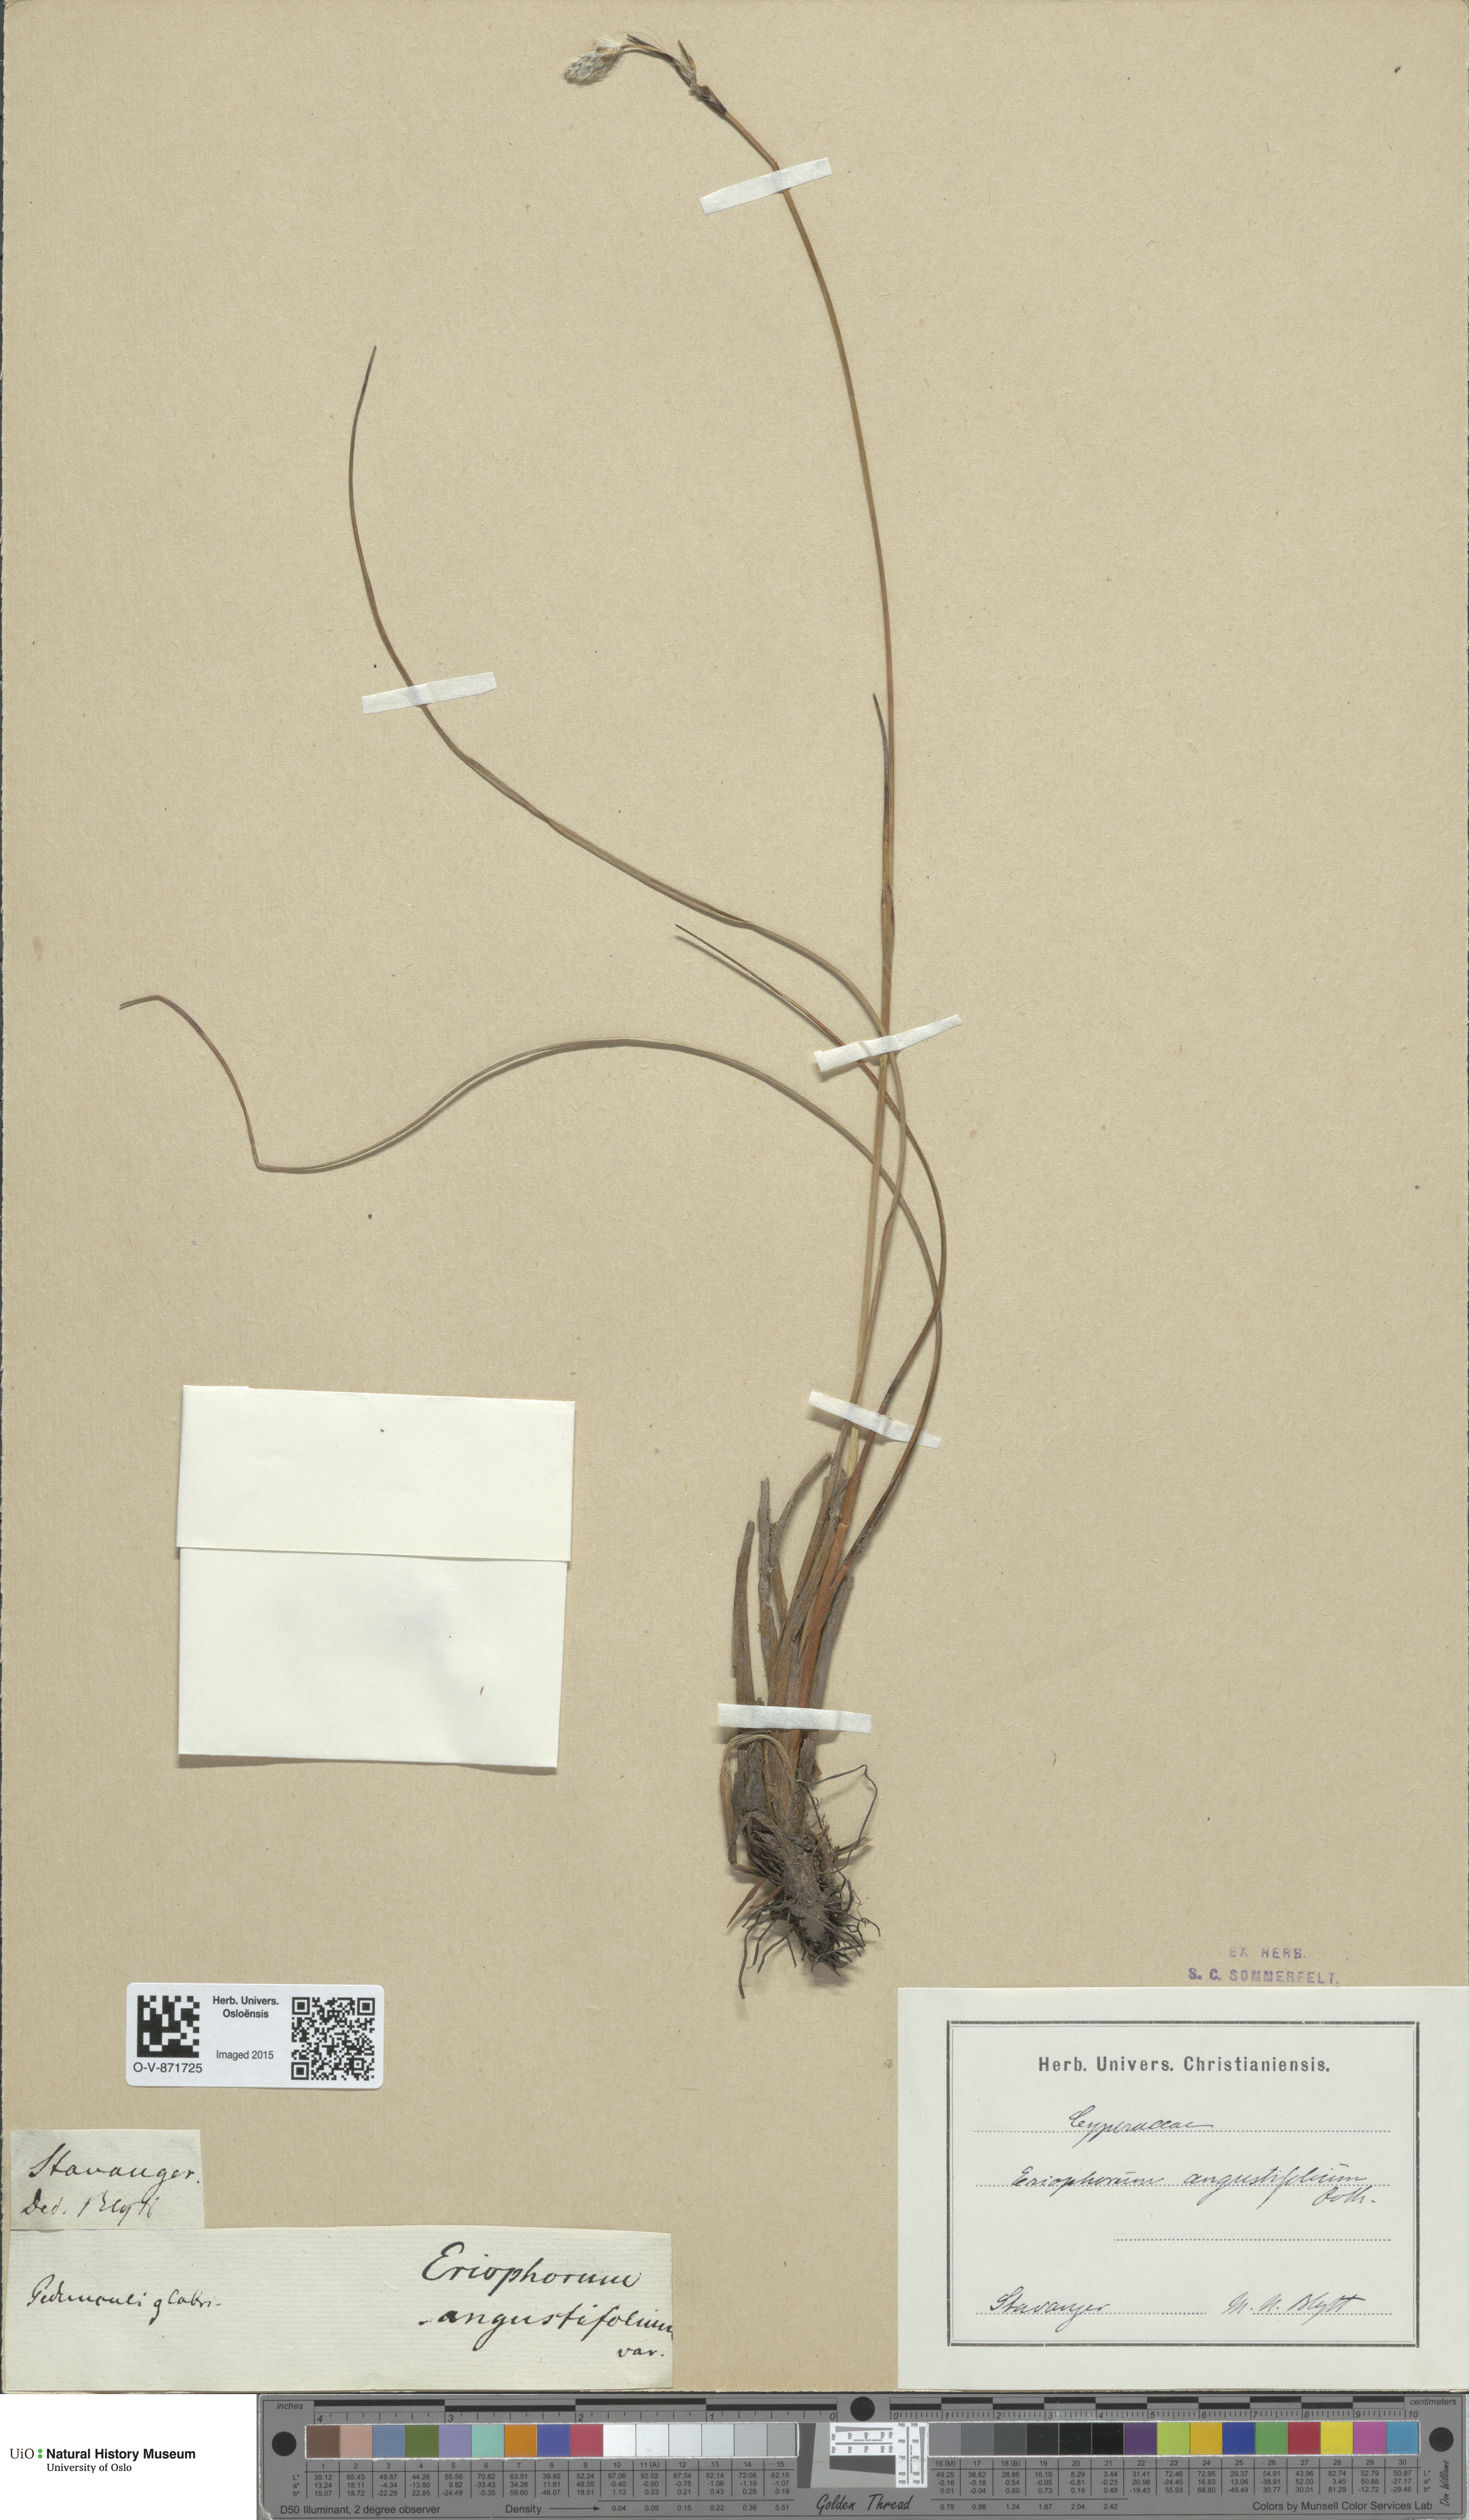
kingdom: Plantae
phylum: Tracheophyta
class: Liliopsida
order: Poales
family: Cyperaceae
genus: Eriophorum
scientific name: Eriophorum angustifolium
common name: Common cottongrass
